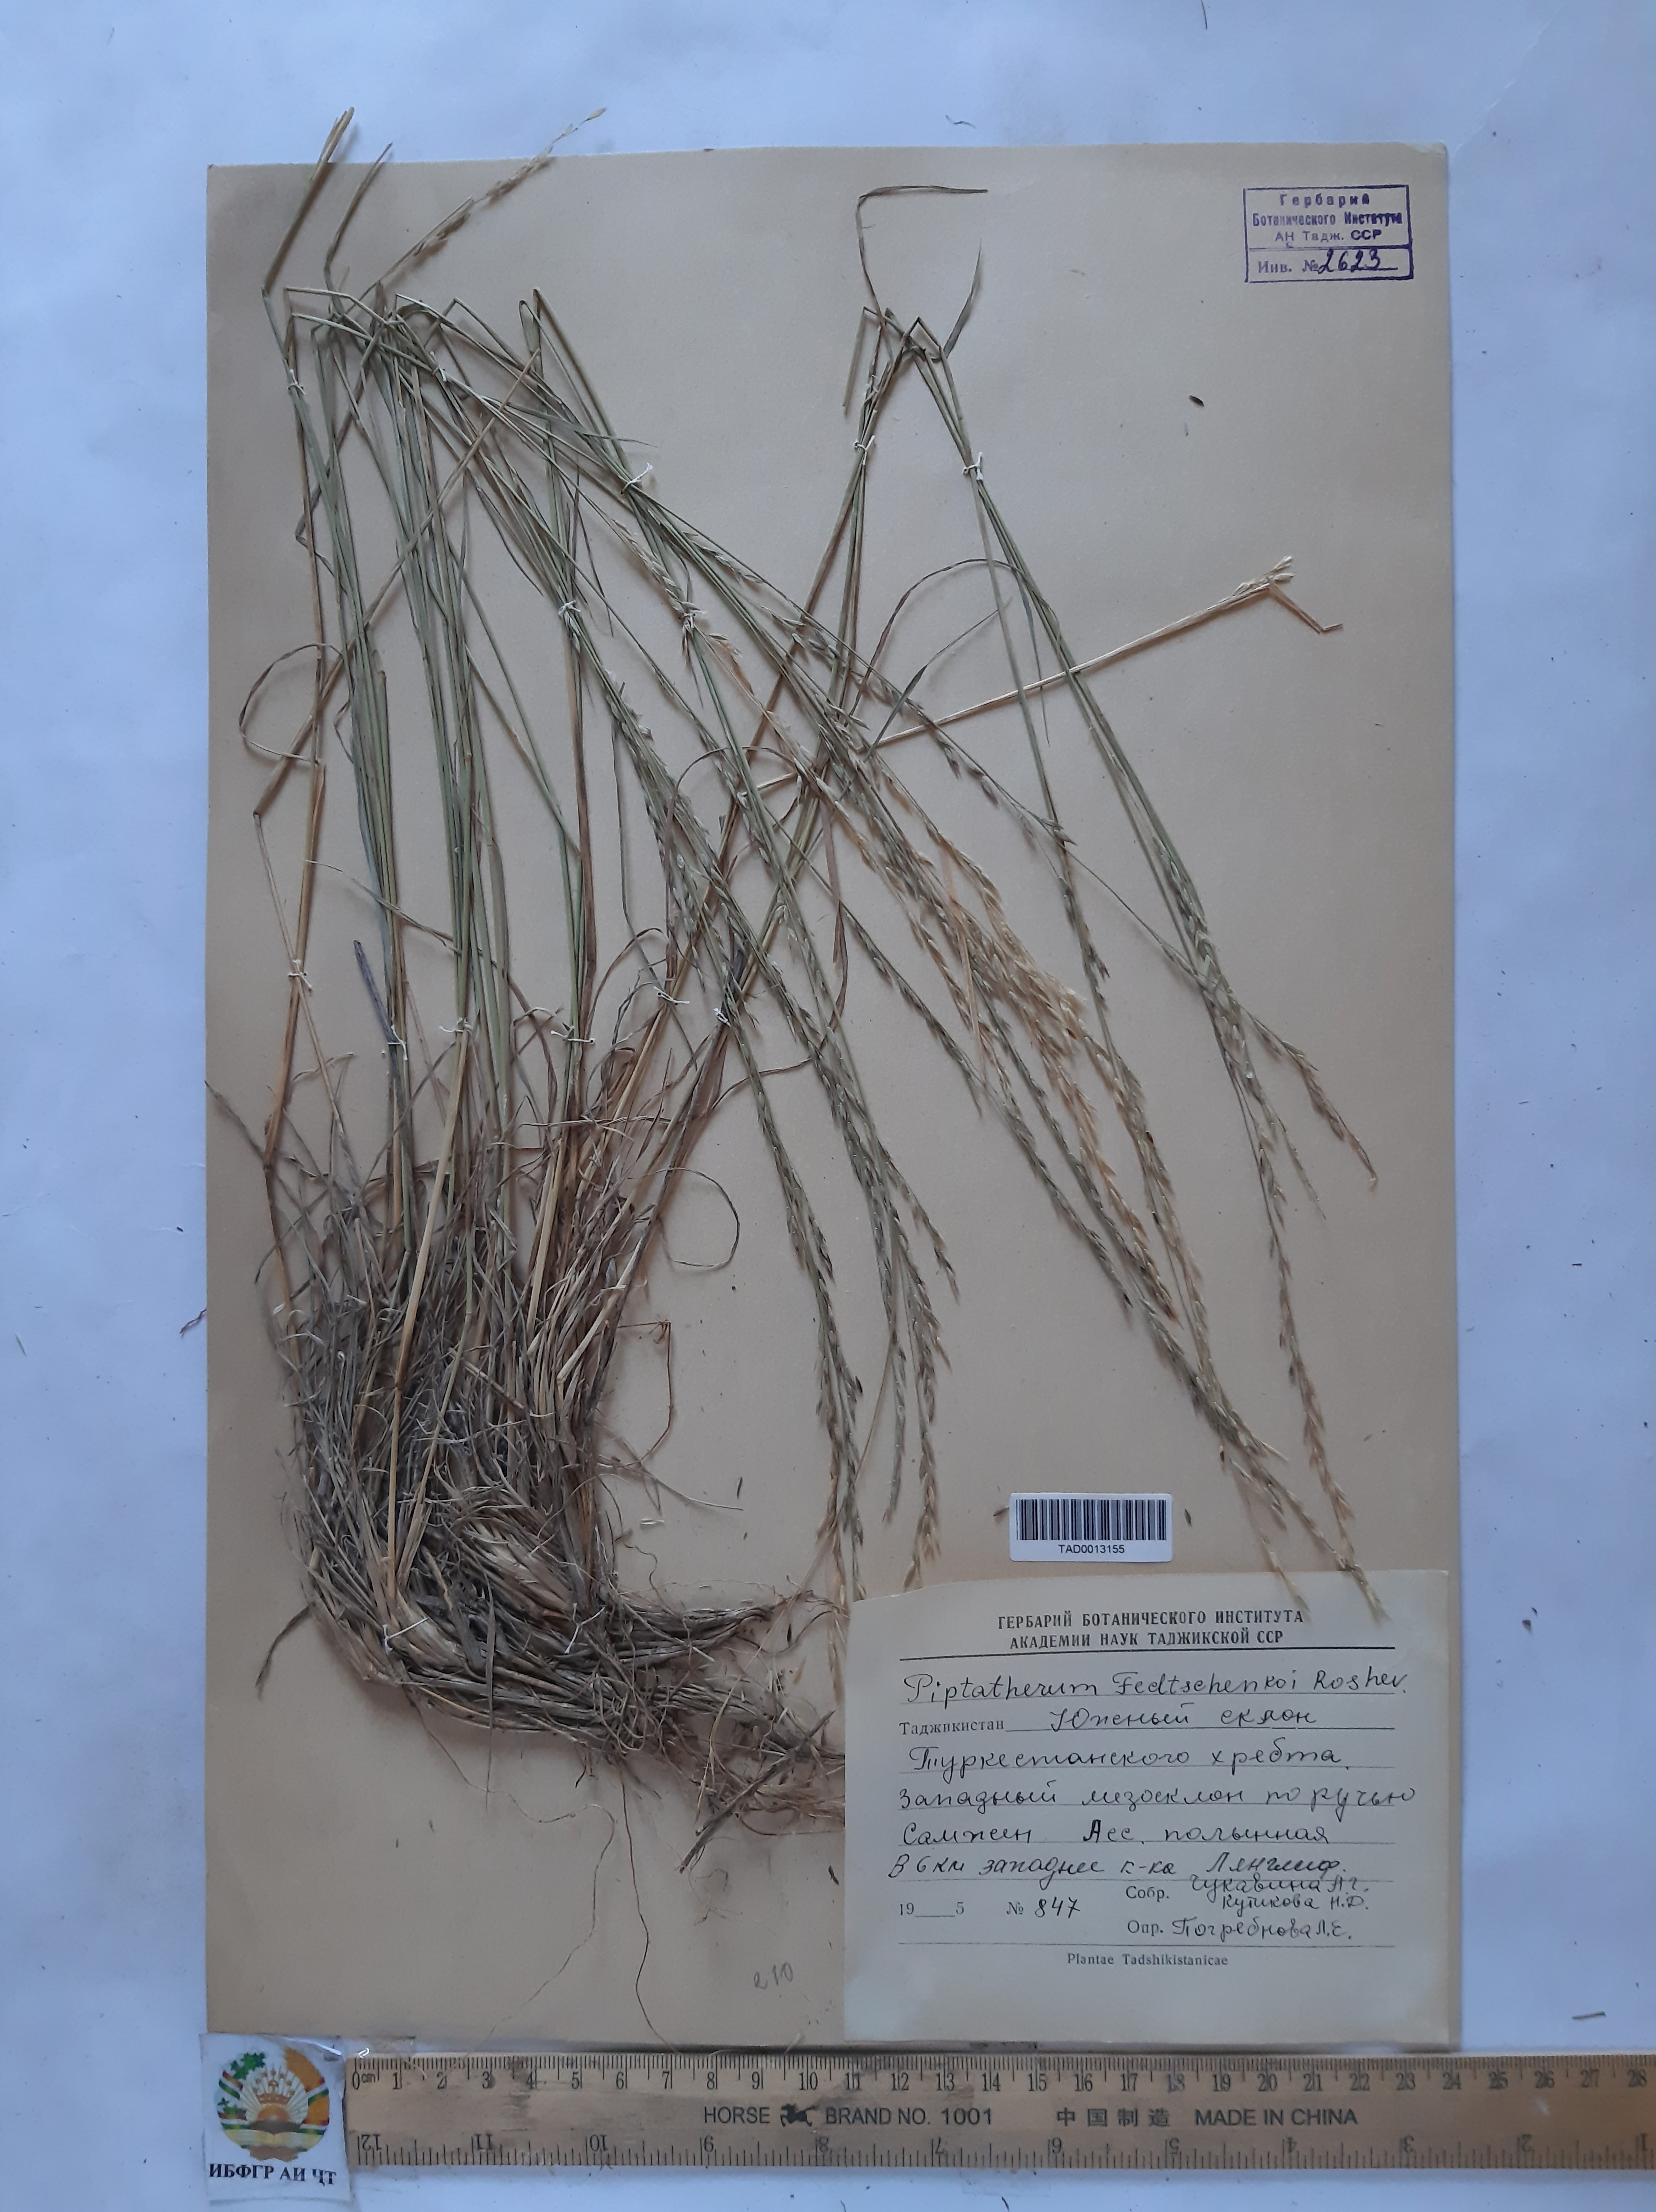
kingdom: Plantae
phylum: Tracheophyta
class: Liliopsida
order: Poales
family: Poaceae
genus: Piptatherum
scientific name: Piptatherum sogdianum
